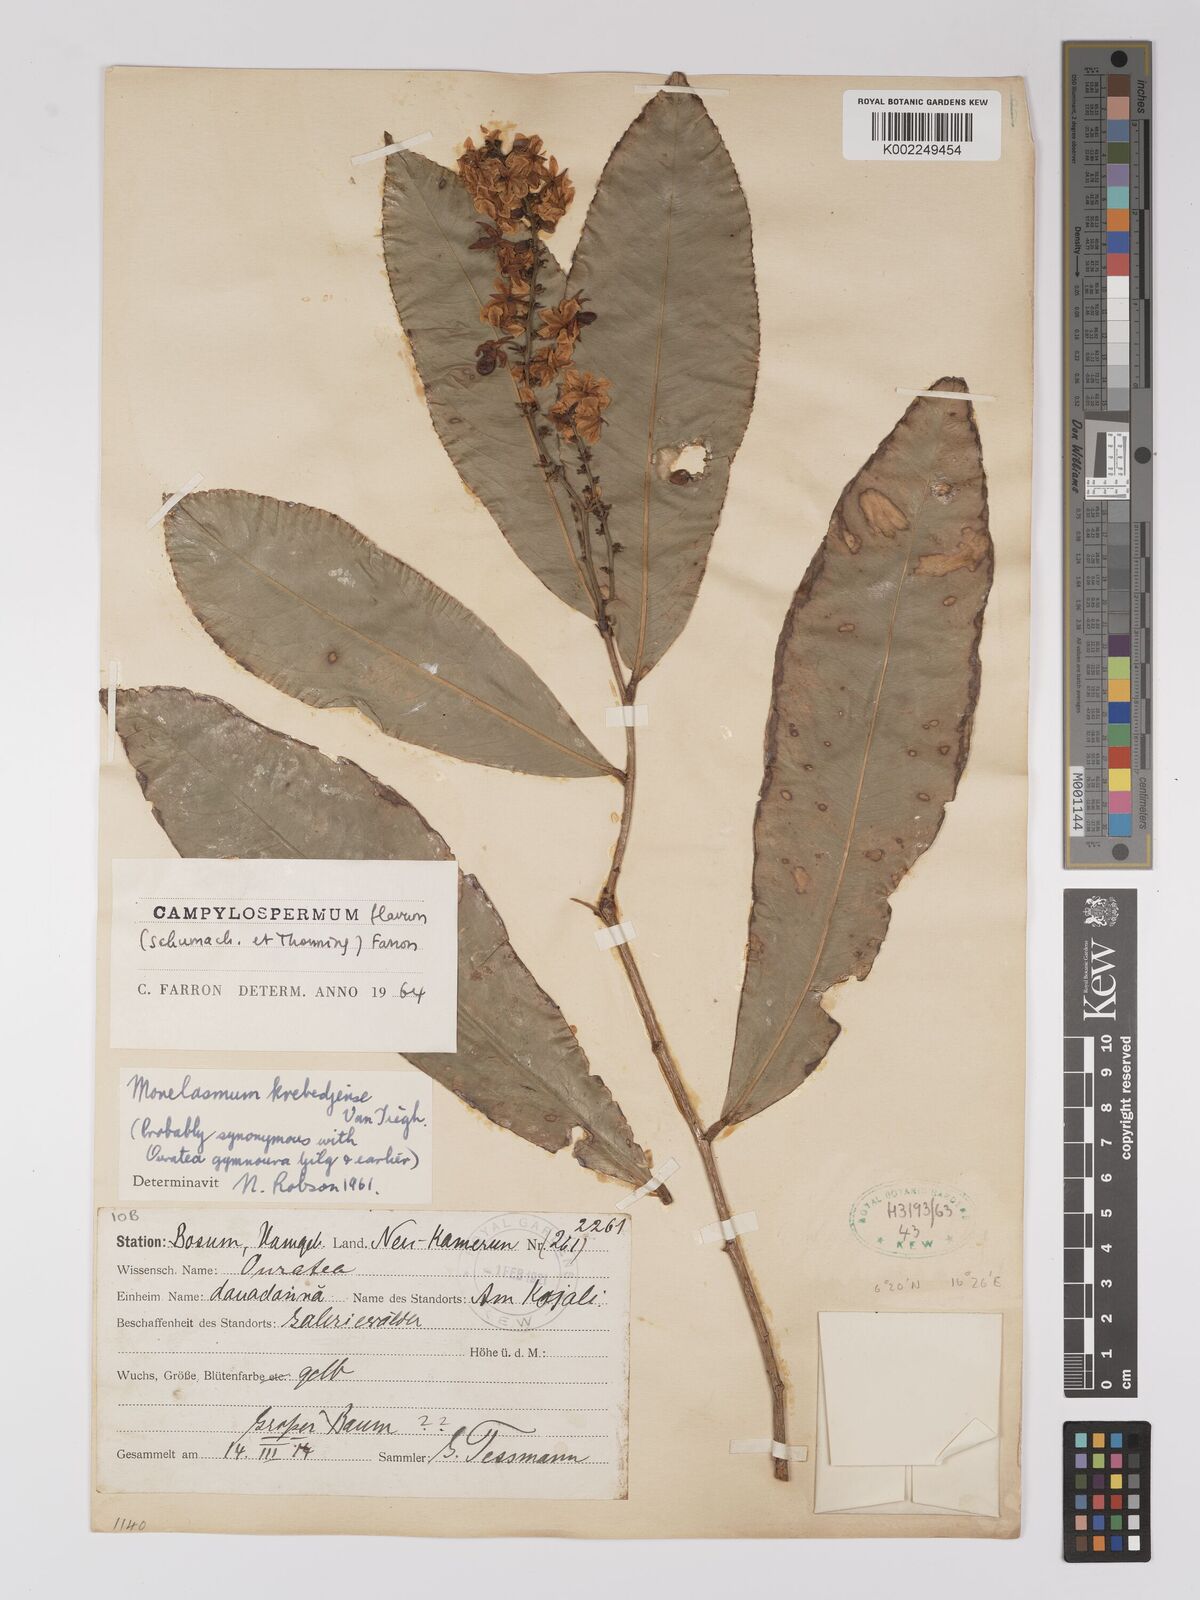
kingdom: Plantae
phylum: Tracheophyta
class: Magnoliopsida
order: Malpighiales
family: Ochnaceae
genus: Campylospermum
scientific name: Campylospermum flavum
